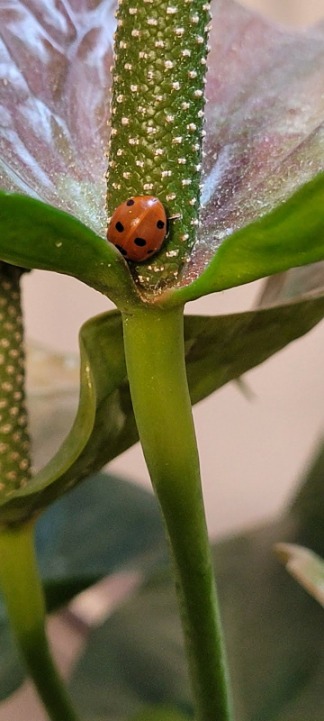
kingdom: Animalia
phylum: Arthropoda
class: Insecta
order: Coleoptera
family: Coccinellidae
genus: Coccinella
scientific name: Coccinella septempunctata
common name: Syvplettet mariehøne
